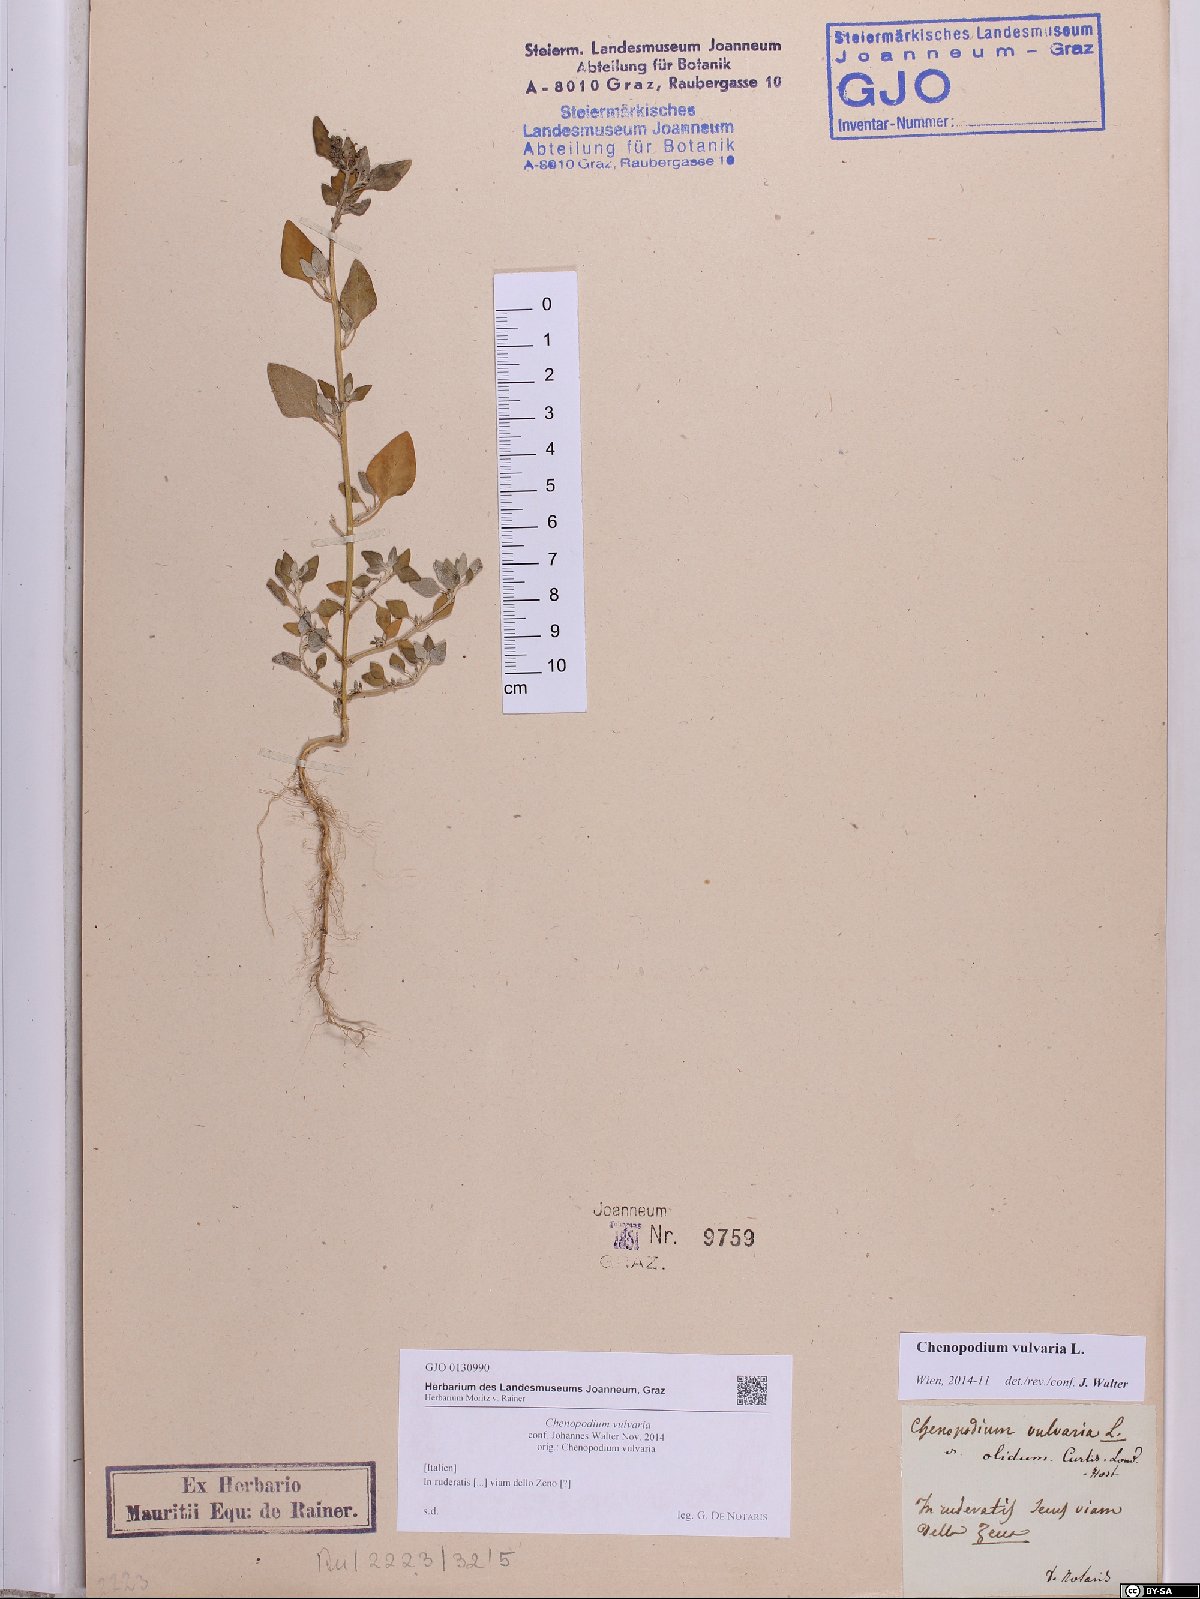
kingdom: Plantae
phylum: Tracheophyta
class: Magnoliopsida
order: Caryophyllales
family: Amaranthaceae
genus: Chenopodium
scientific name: Chenopodium vulvaria
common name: Stinking goosefoot
